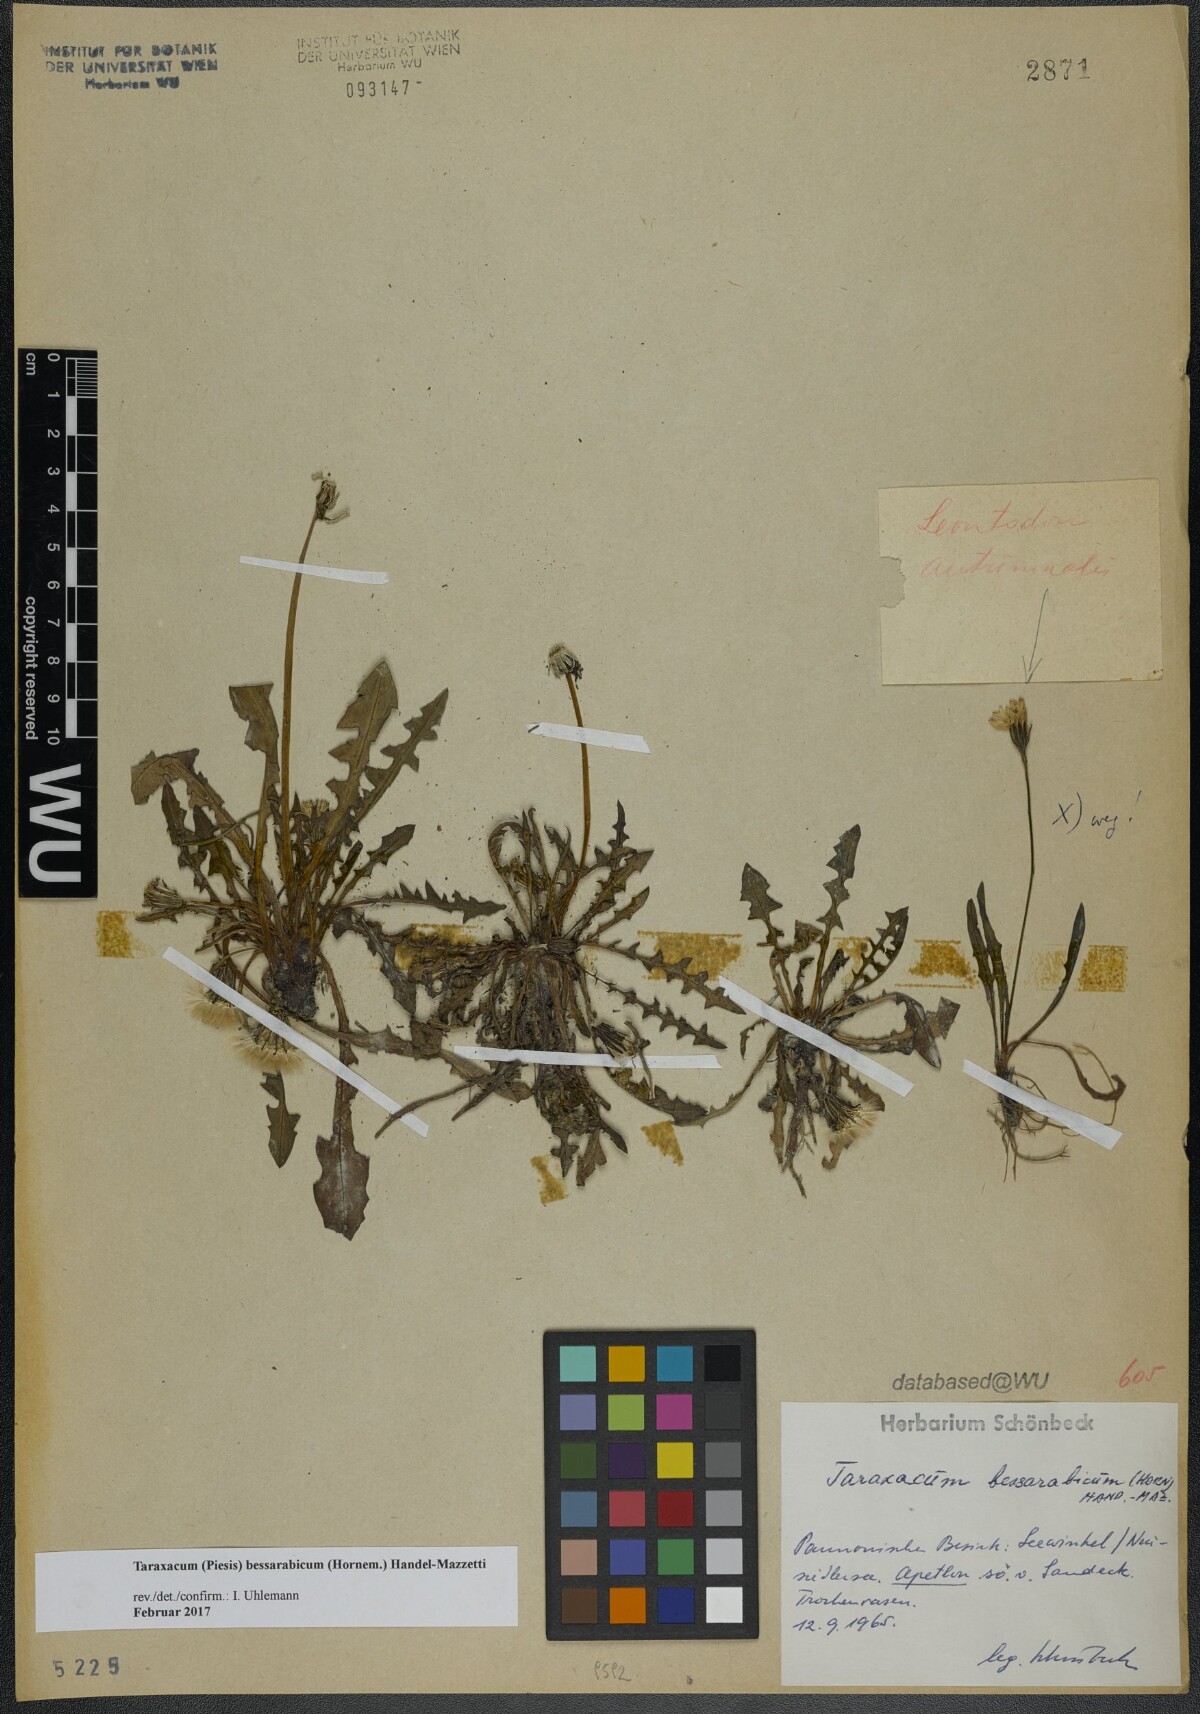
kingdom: Plantae
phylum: Tracheophyta
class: Magnoliopsida
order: Asterales
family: Asteraceae
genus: Taraxacum
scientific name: Taraxacum bessarabicum
